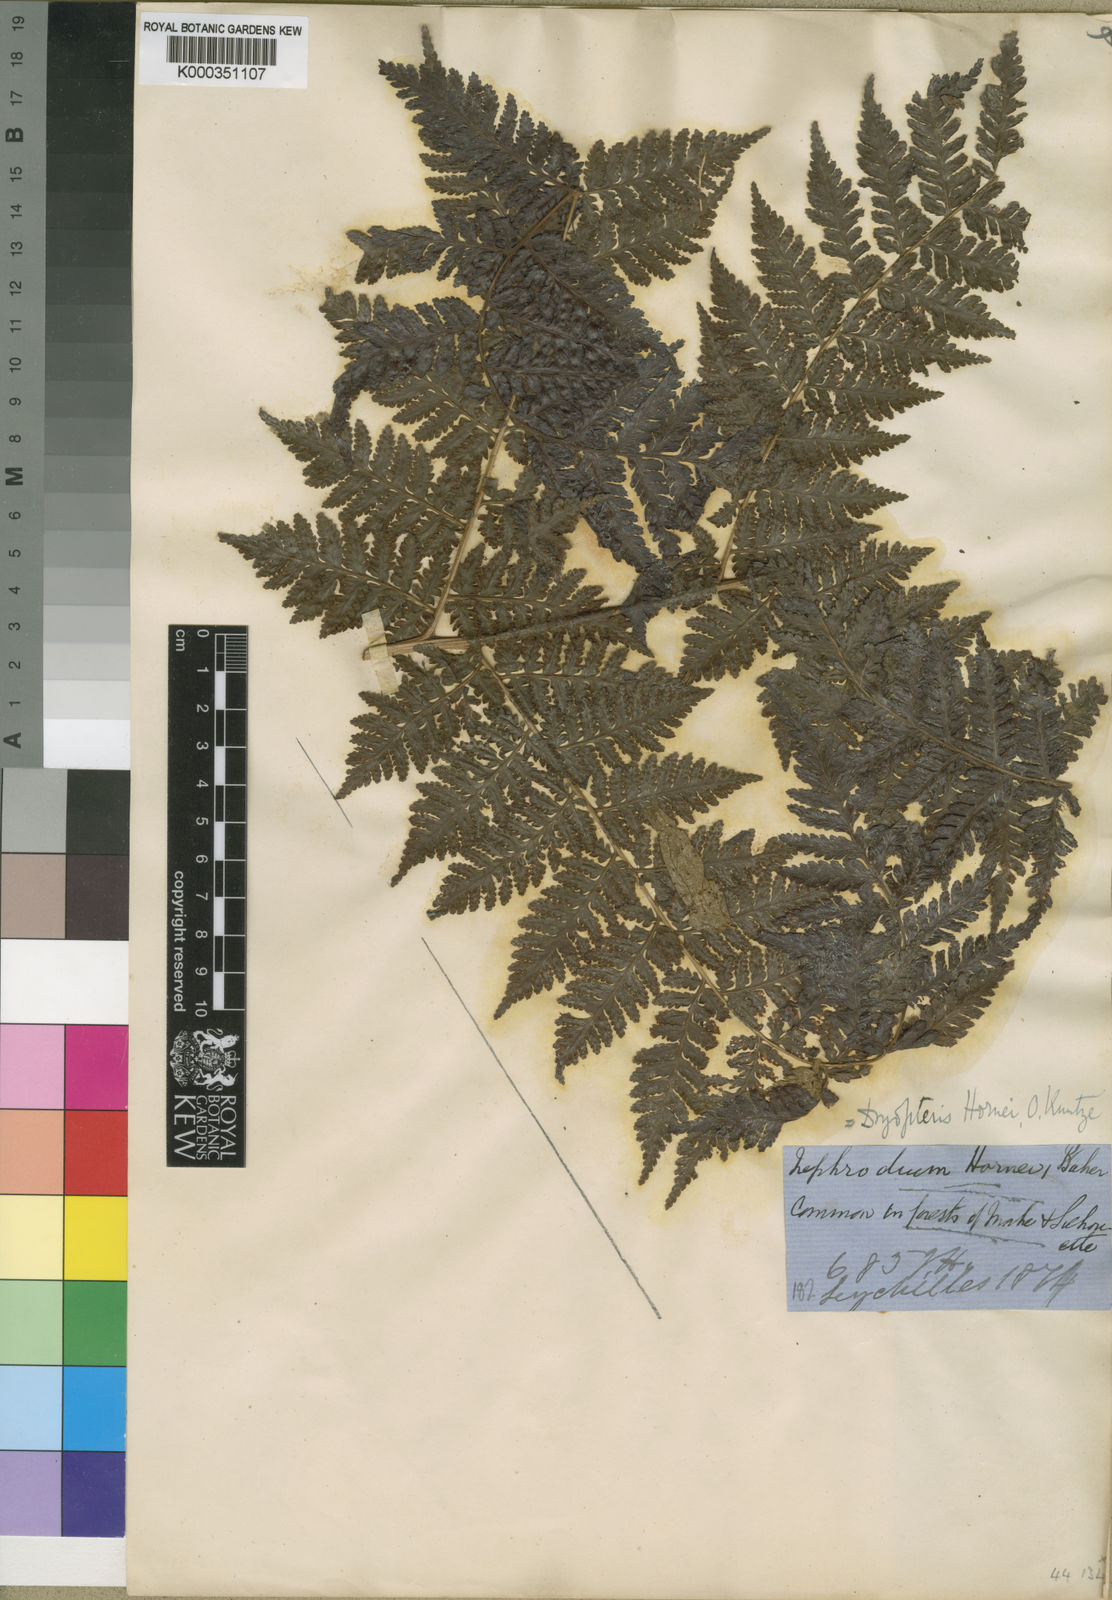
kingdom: Plantae
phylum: Tracheophyta
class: Polypodiopsida
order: Polypodiales
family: Dryopteridaceae
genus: Parapolystichum
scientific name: Parapolystichum hornei
